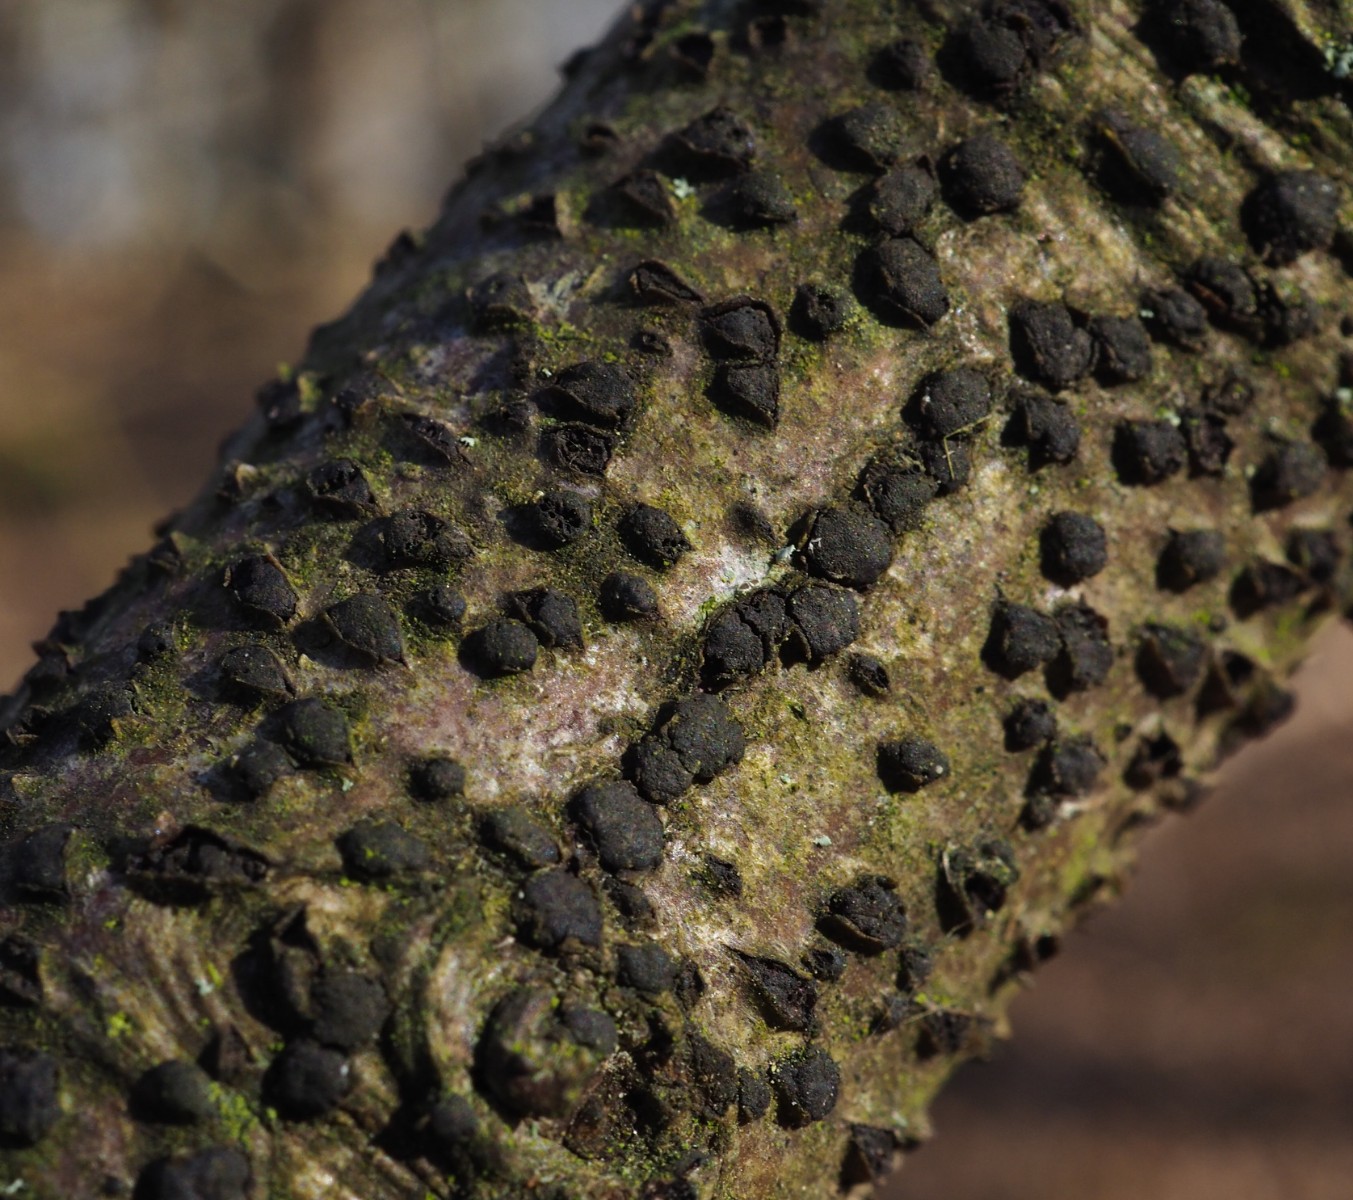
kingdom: Fungi
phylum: Ascomycota
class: Sordariomycetes
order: Xylariales
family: Melogrammataceae
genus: Melogramma
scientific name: Melogramma campylosporum
